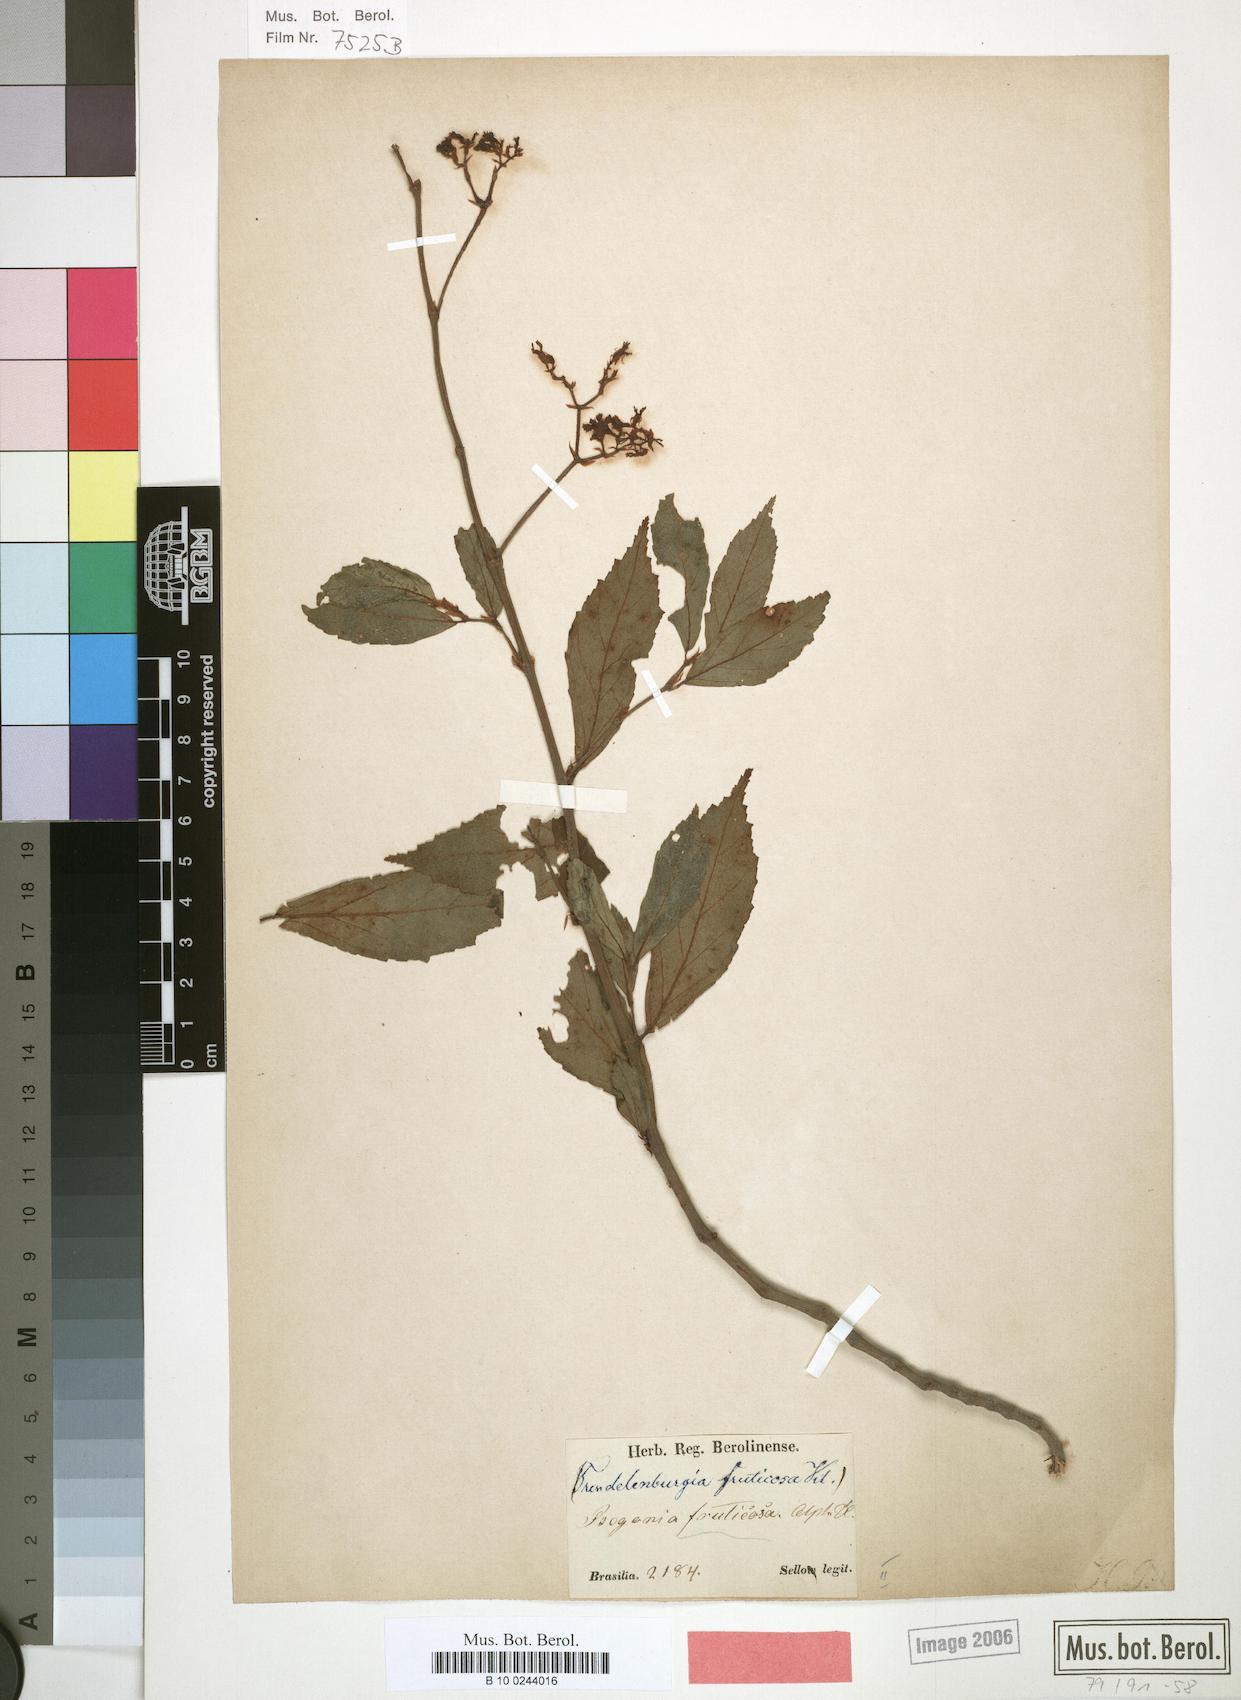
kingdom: Plantae
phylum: Tracheophyta
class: Magnoliopsida
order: Cucurbitales
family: Begoniaceae
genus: Begonia
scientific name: Begonia fruticosa
